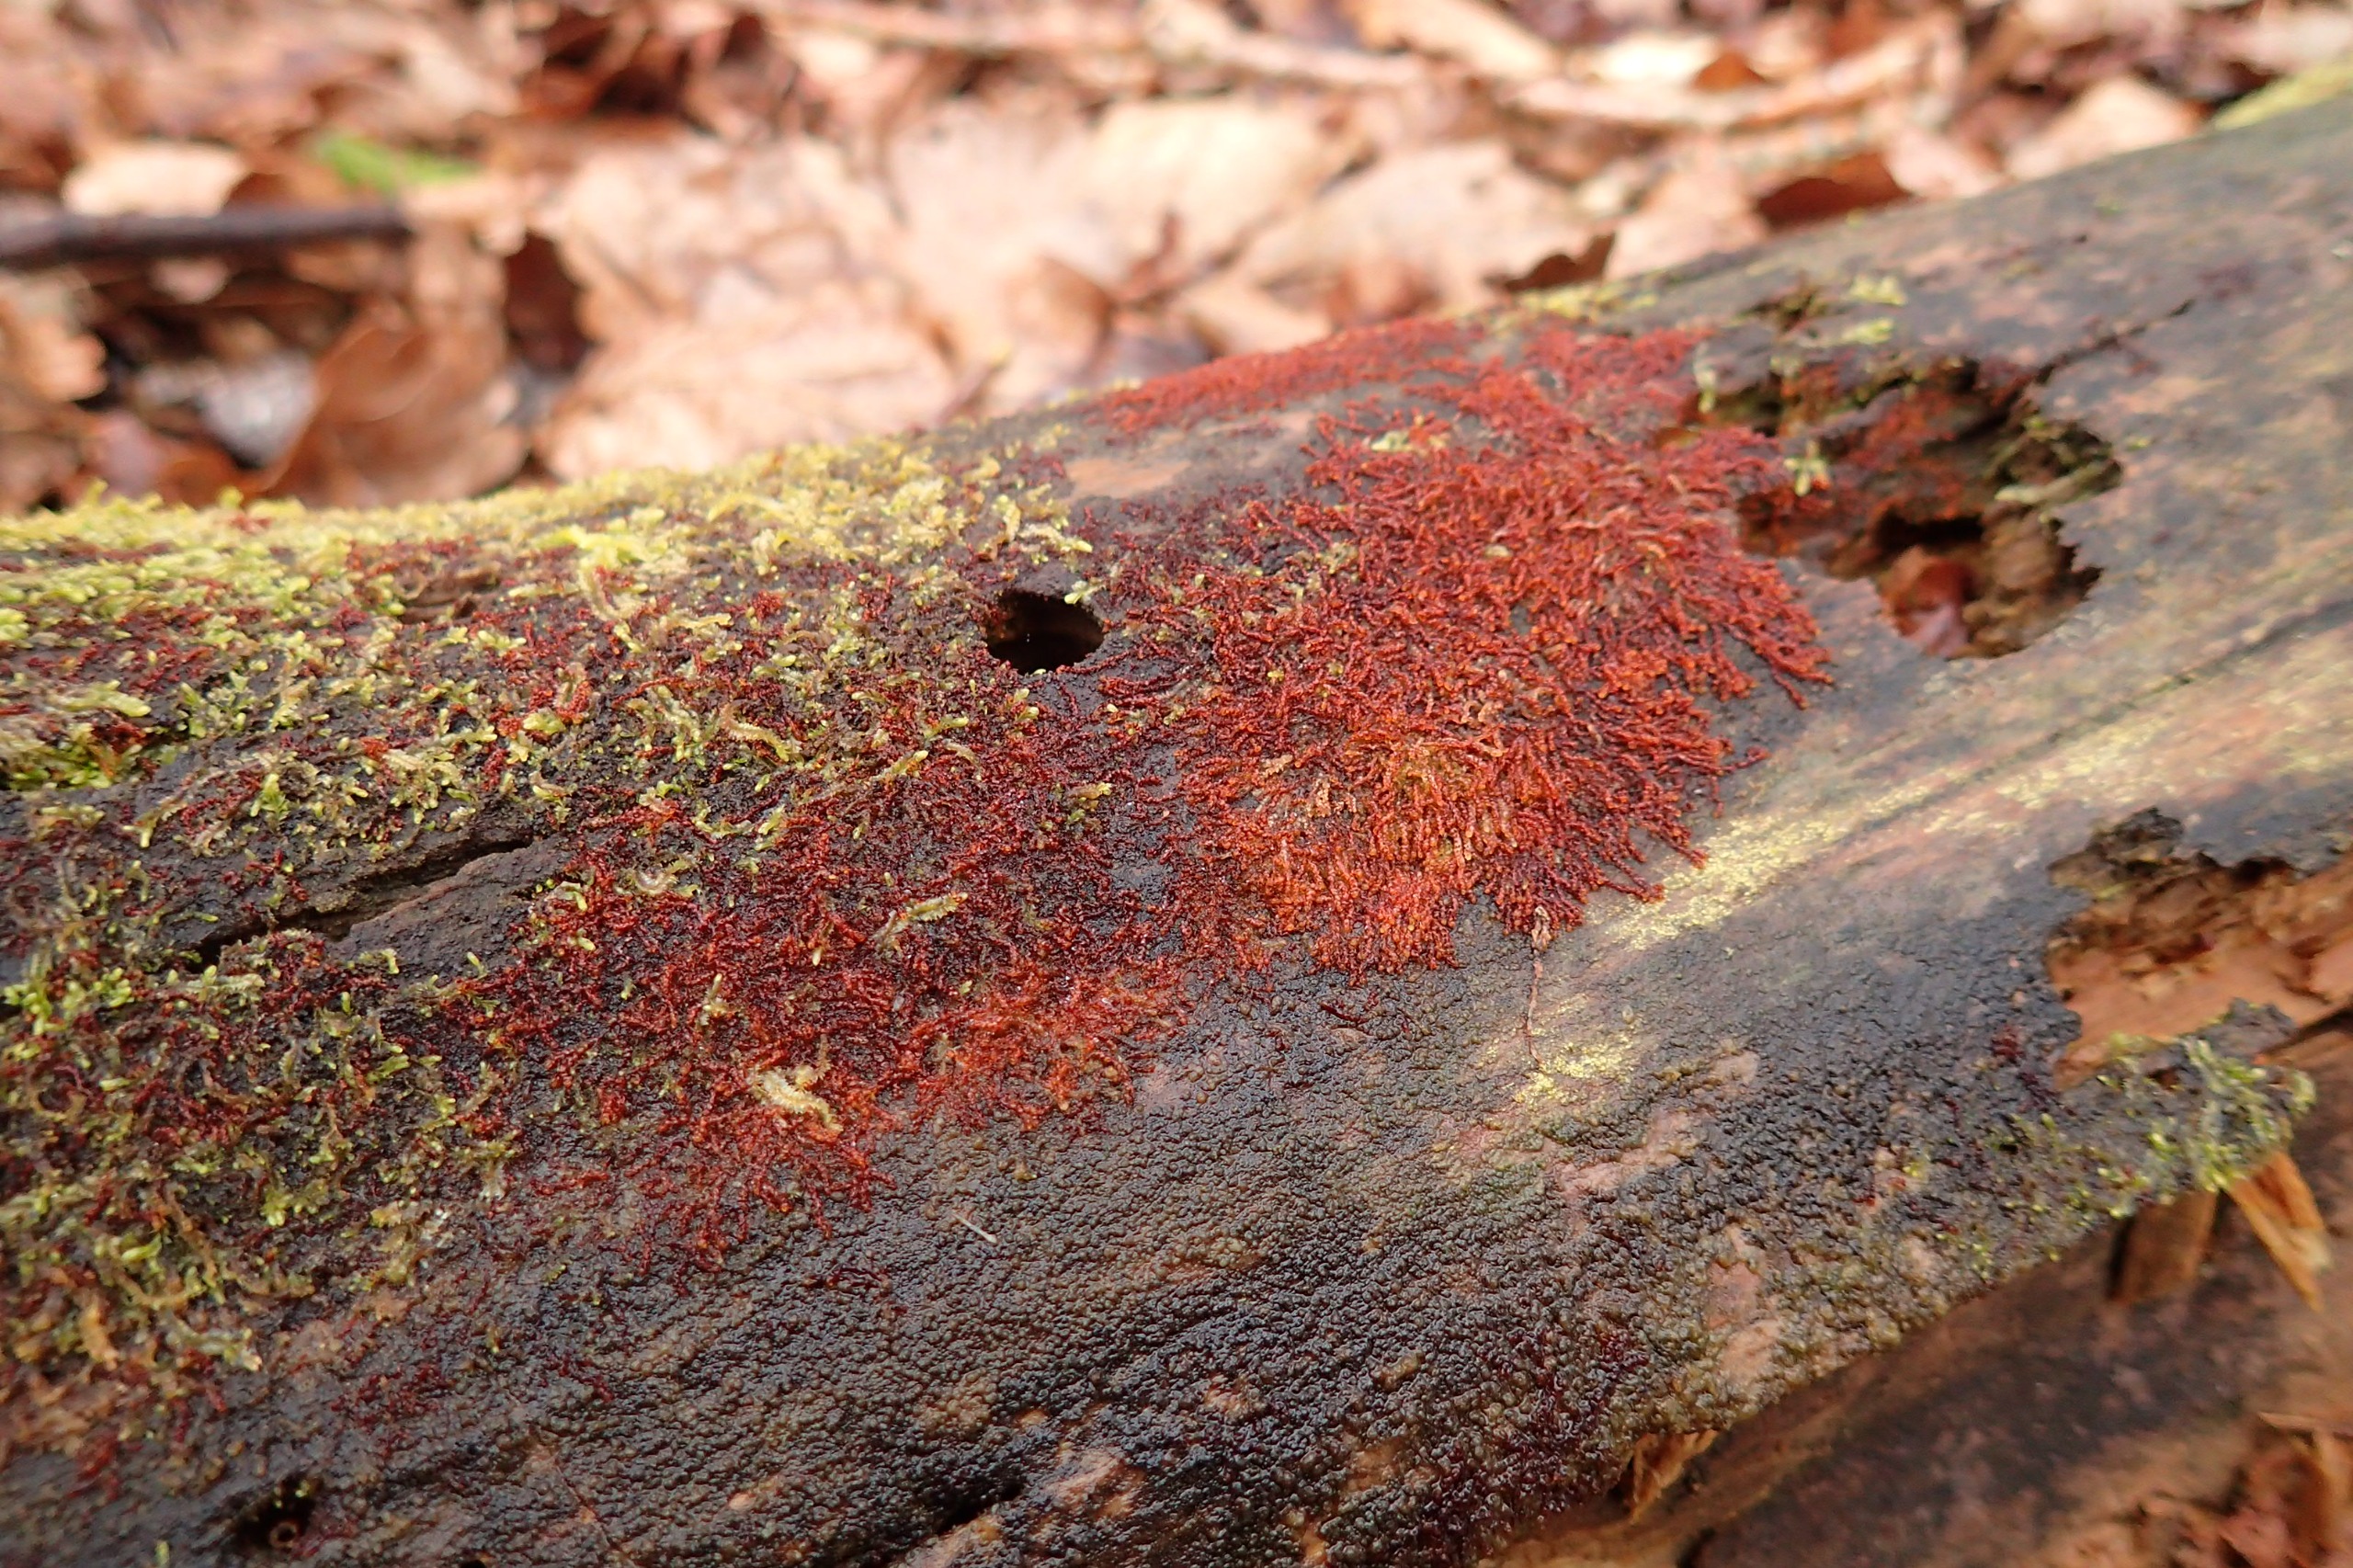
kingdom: Plantae
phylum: Marchantiophyta
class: Jungermanniopsida
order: Jungermanniales
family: Cephaloziaceae
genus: Nowellia
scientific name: Nowellia curvifolia
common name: Krumbladet stødmos
